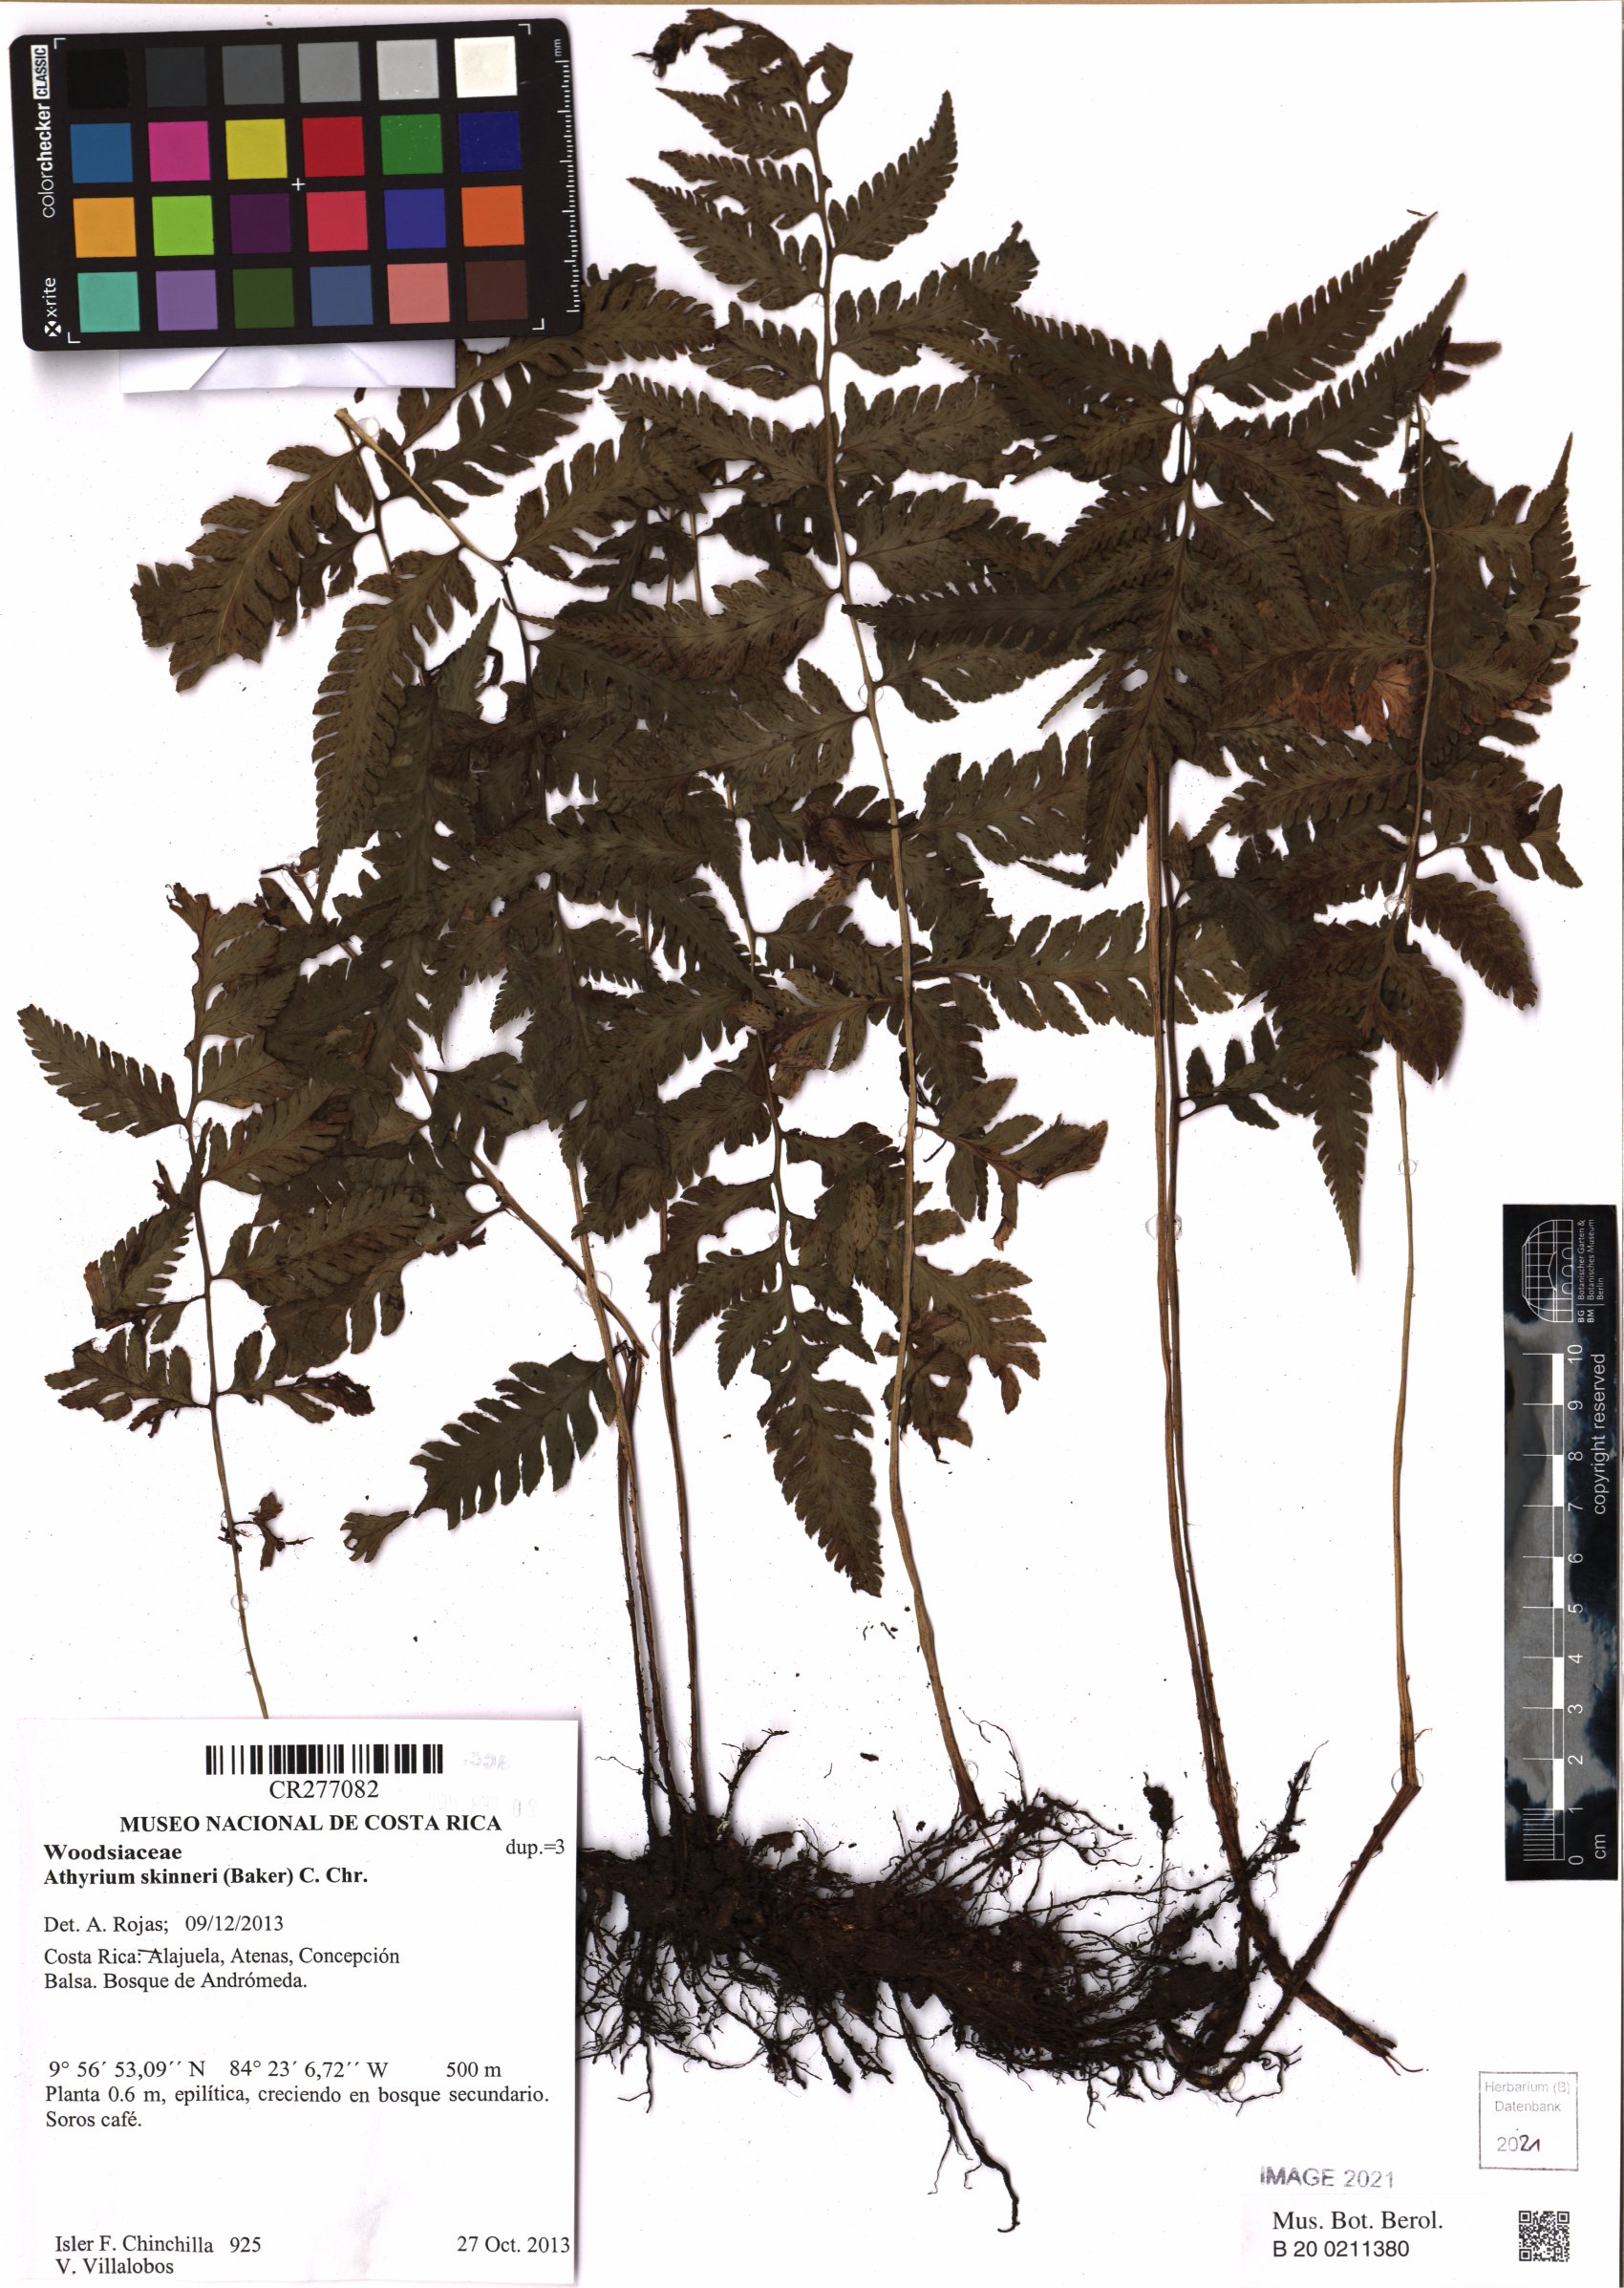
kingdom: Plantae
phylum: Tracheophyta
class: Polypodiopsida
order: Polypodiales
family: Athyriaceae
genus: Ephemeropteris
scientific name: Ephemeropteris skinneri
